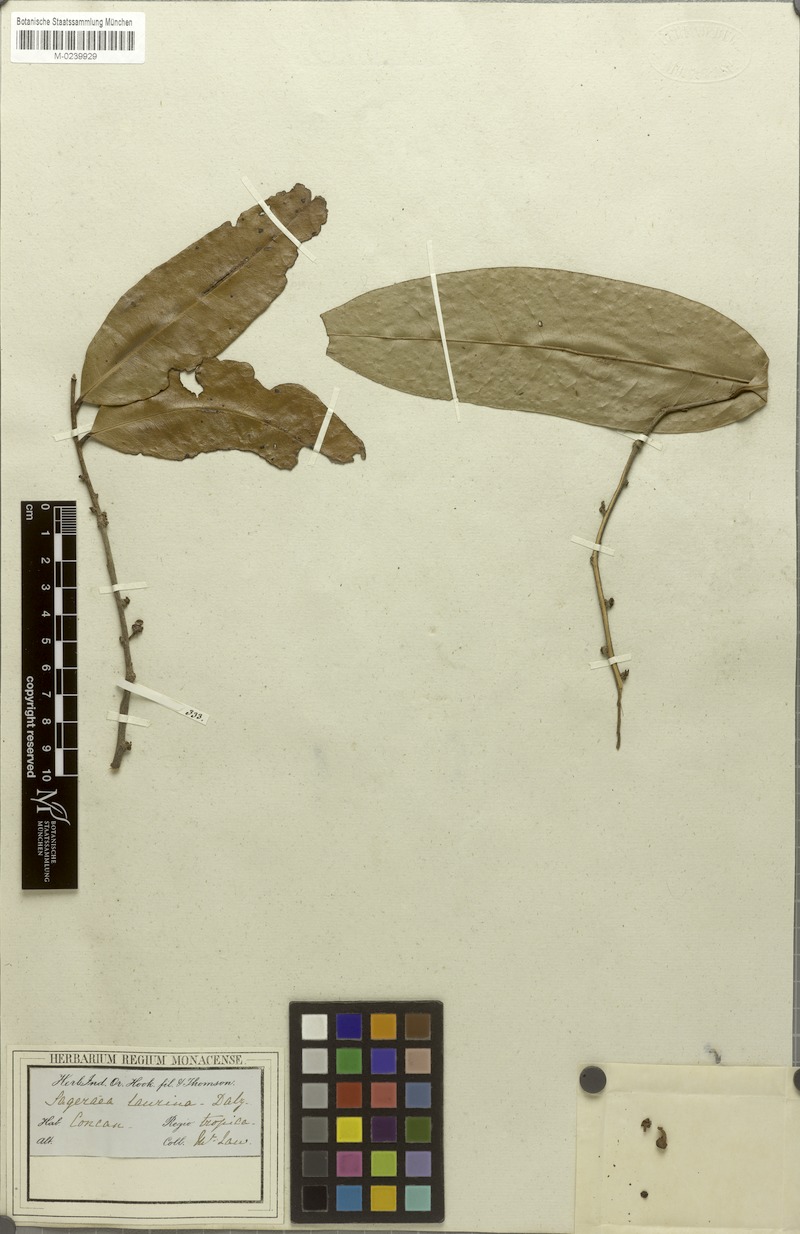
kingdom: Plantae
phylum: Tracheophyta
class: Magnoliopsida
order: Magnoliales
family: Annonaceae
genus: Sageraea
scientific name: Sageraea laurina
